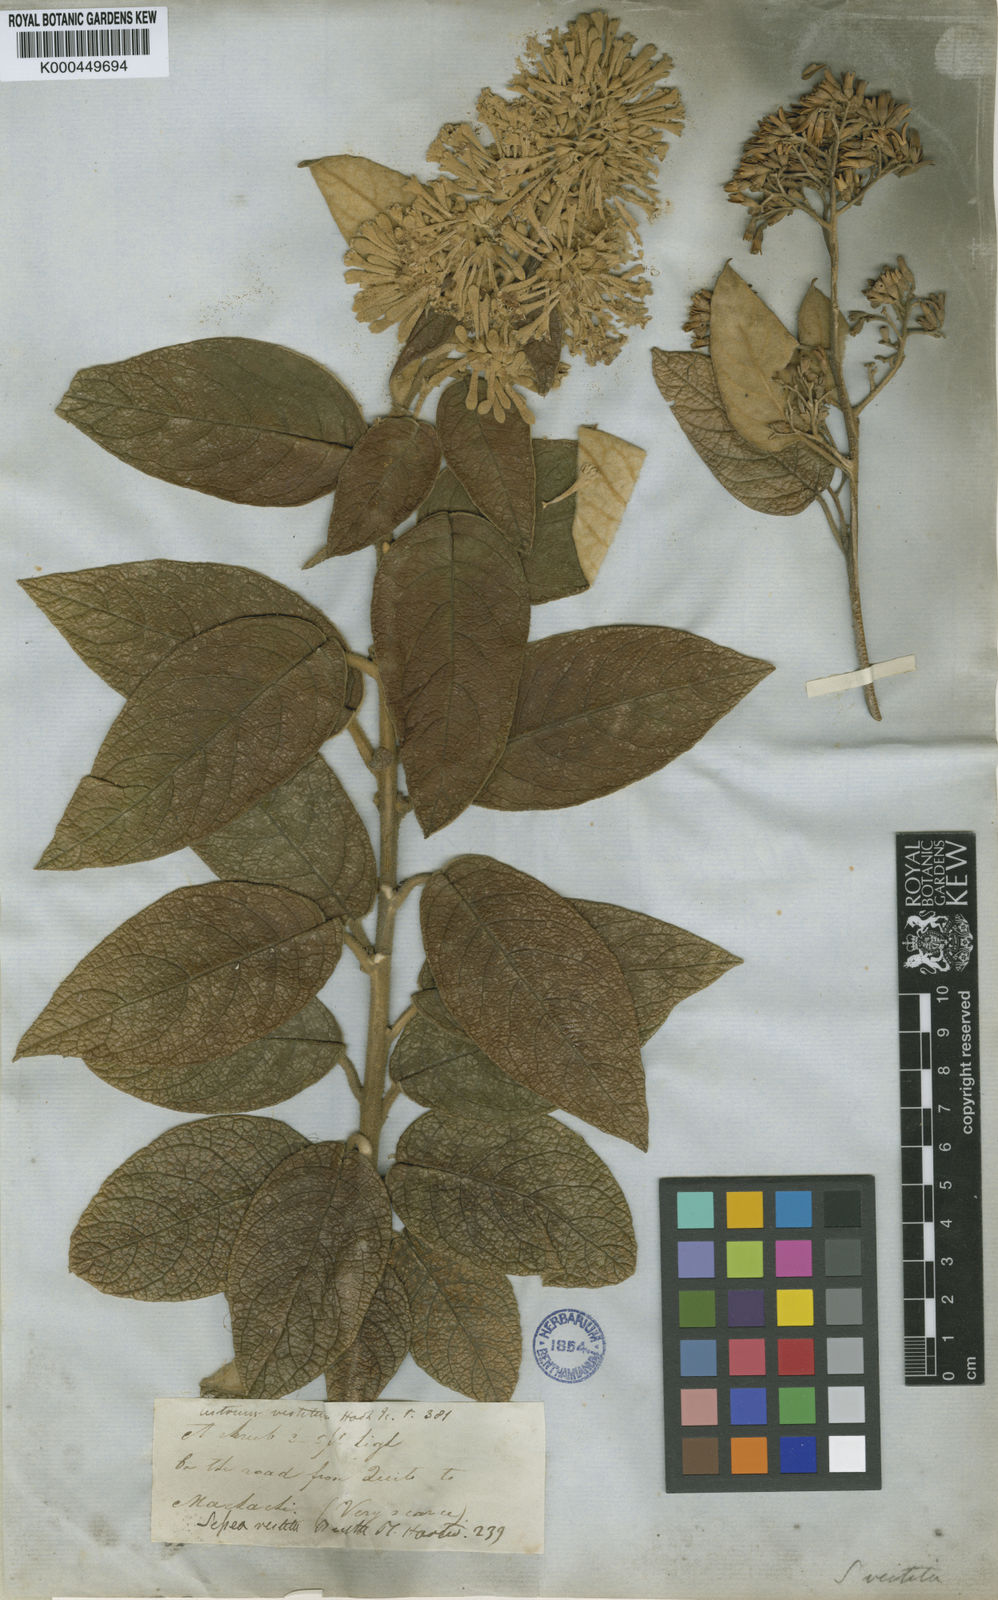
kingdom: Plantae
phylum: Tracheophyta
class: Magnoliopsida
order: Solanales
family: Solanaceae
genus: Sessea
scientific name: Sessea vestita
